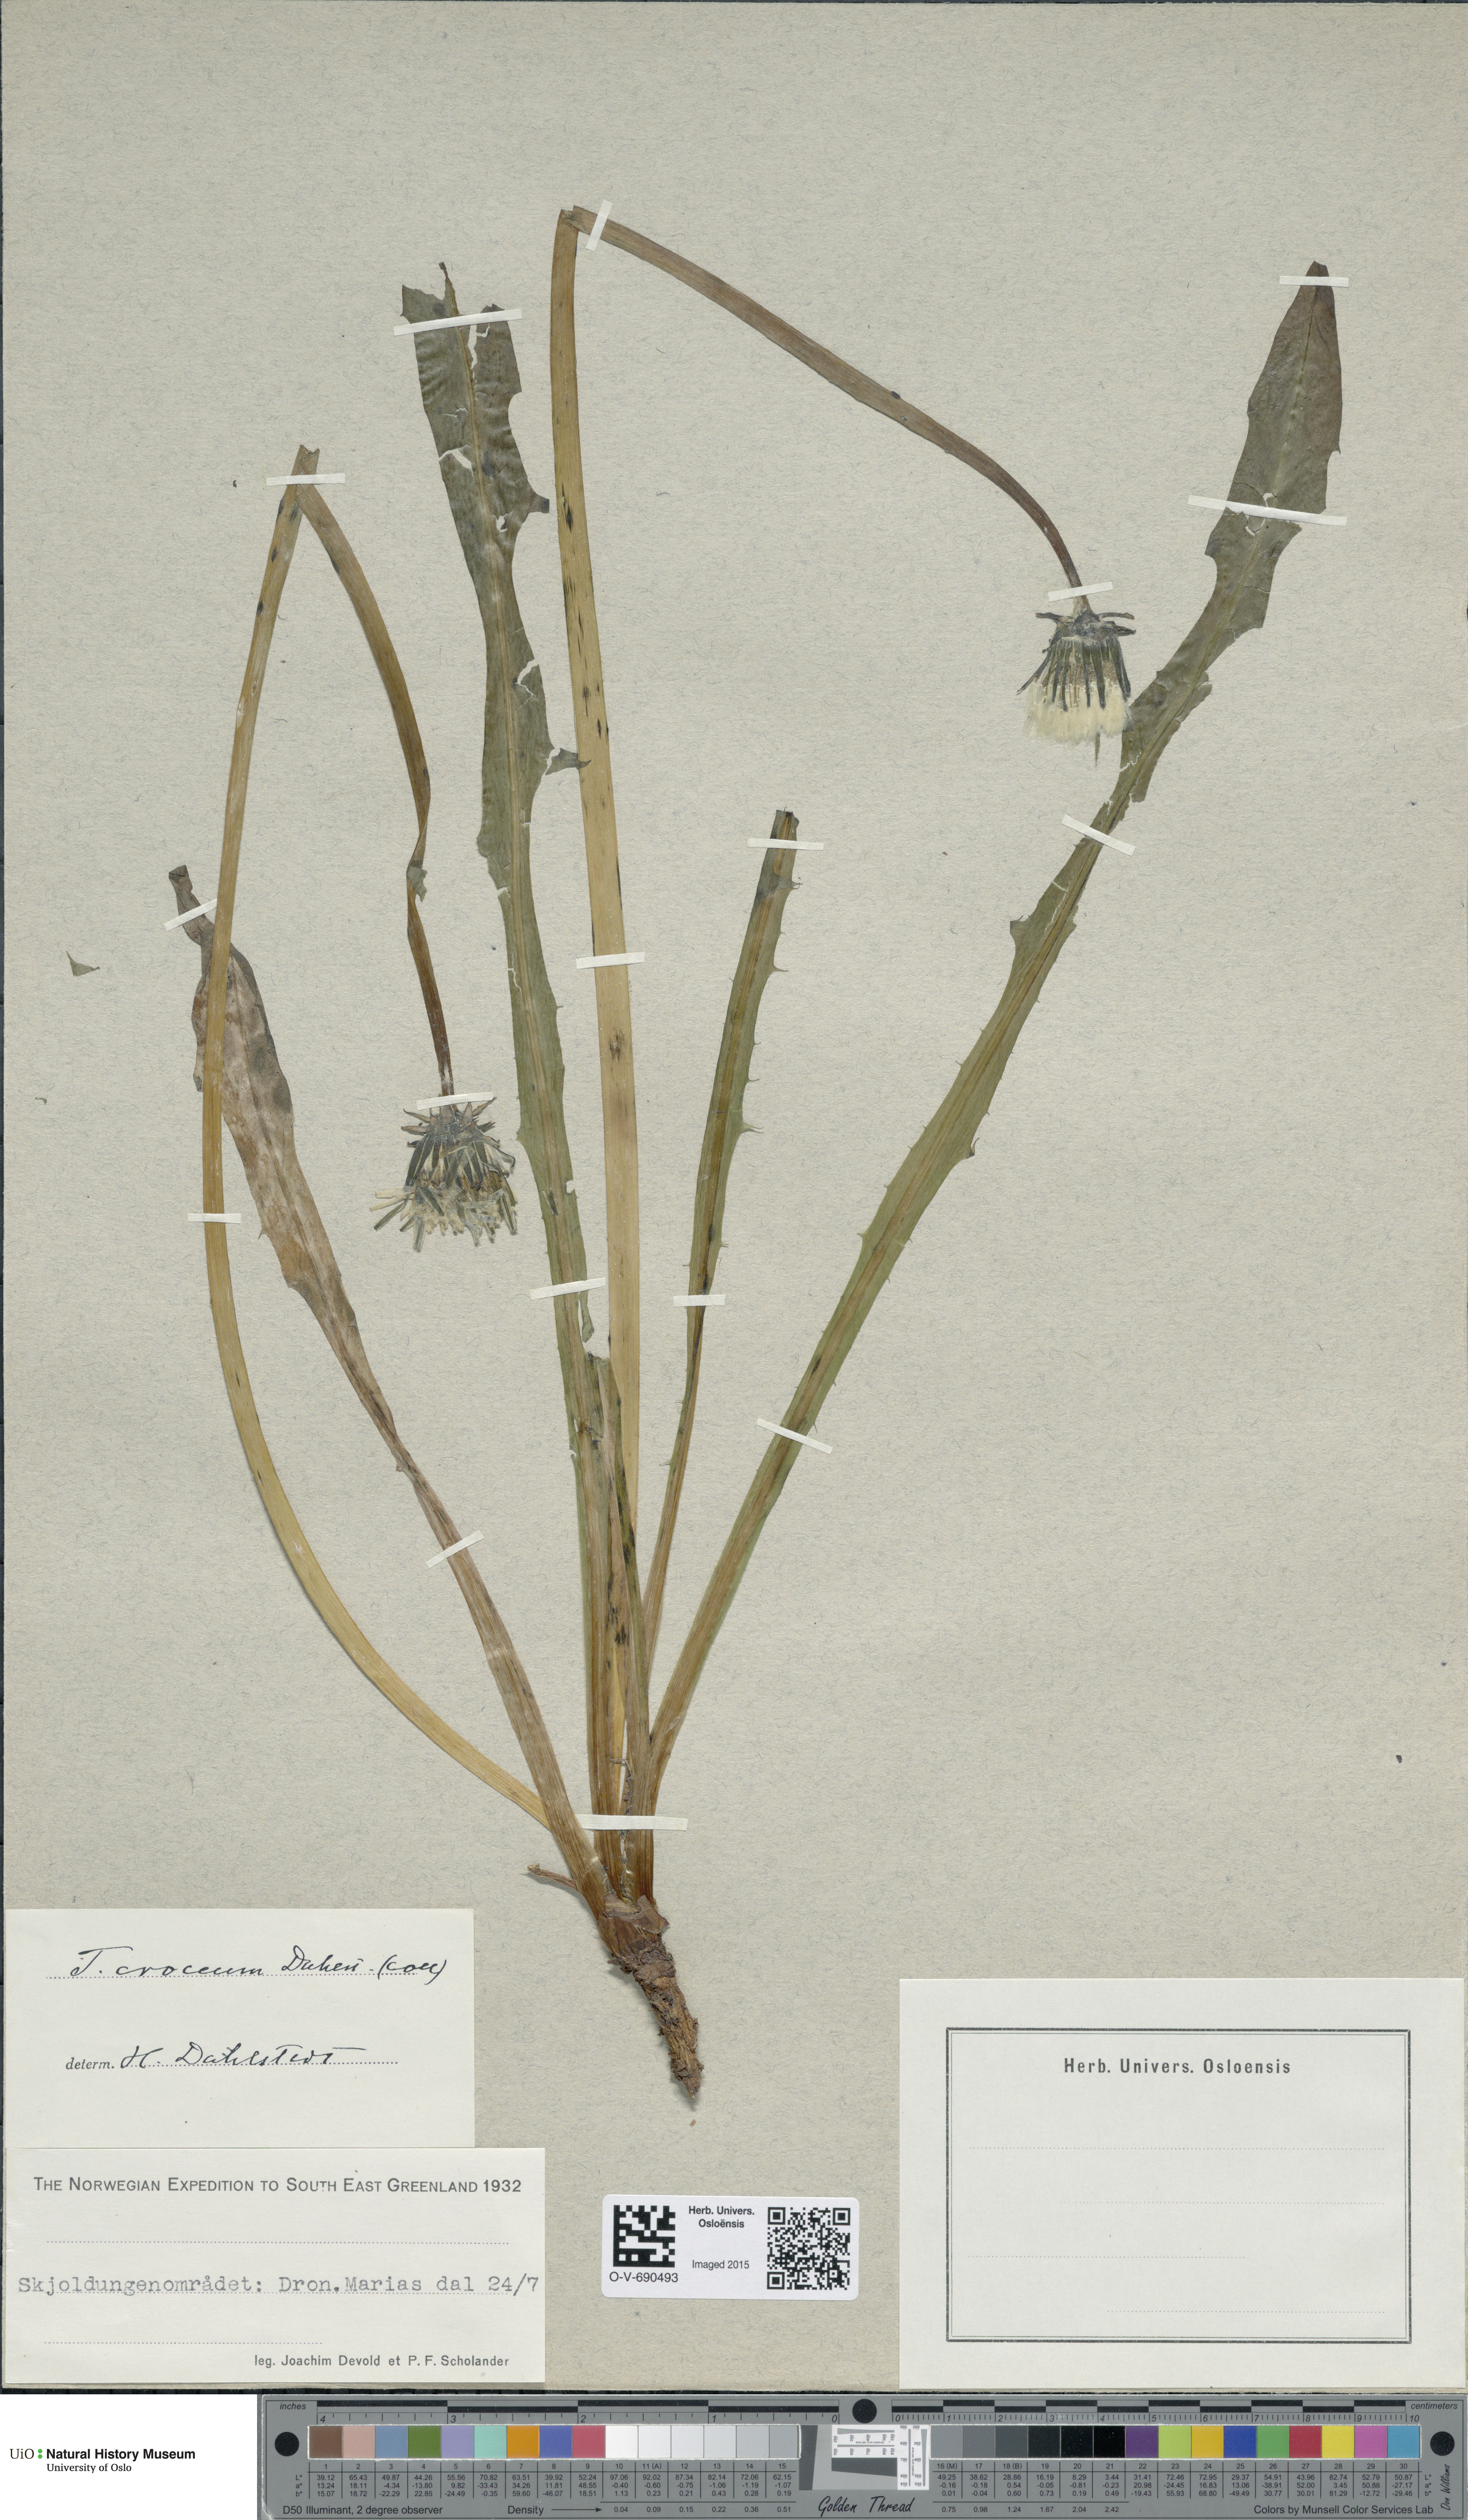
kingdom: Plantae
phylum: Tracheophyta
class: Magnoliopsida
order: Asterales
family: Asteraceae
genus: Taraxacum
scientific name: Taraxacum croceum
